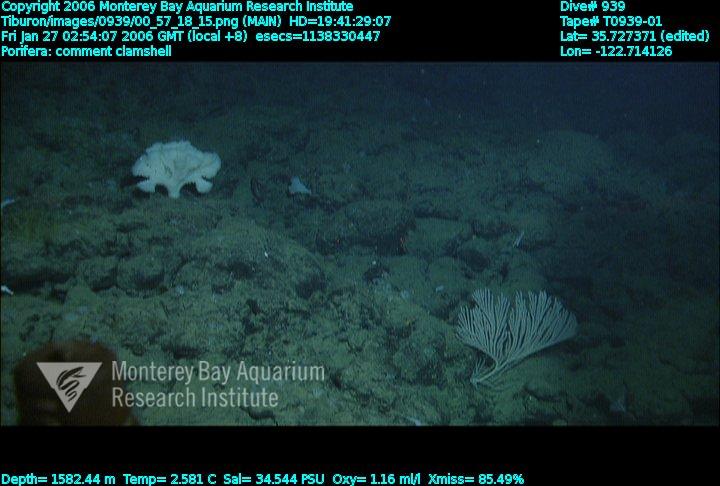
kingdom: Animalia
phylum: Porifera
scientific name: Porifera
